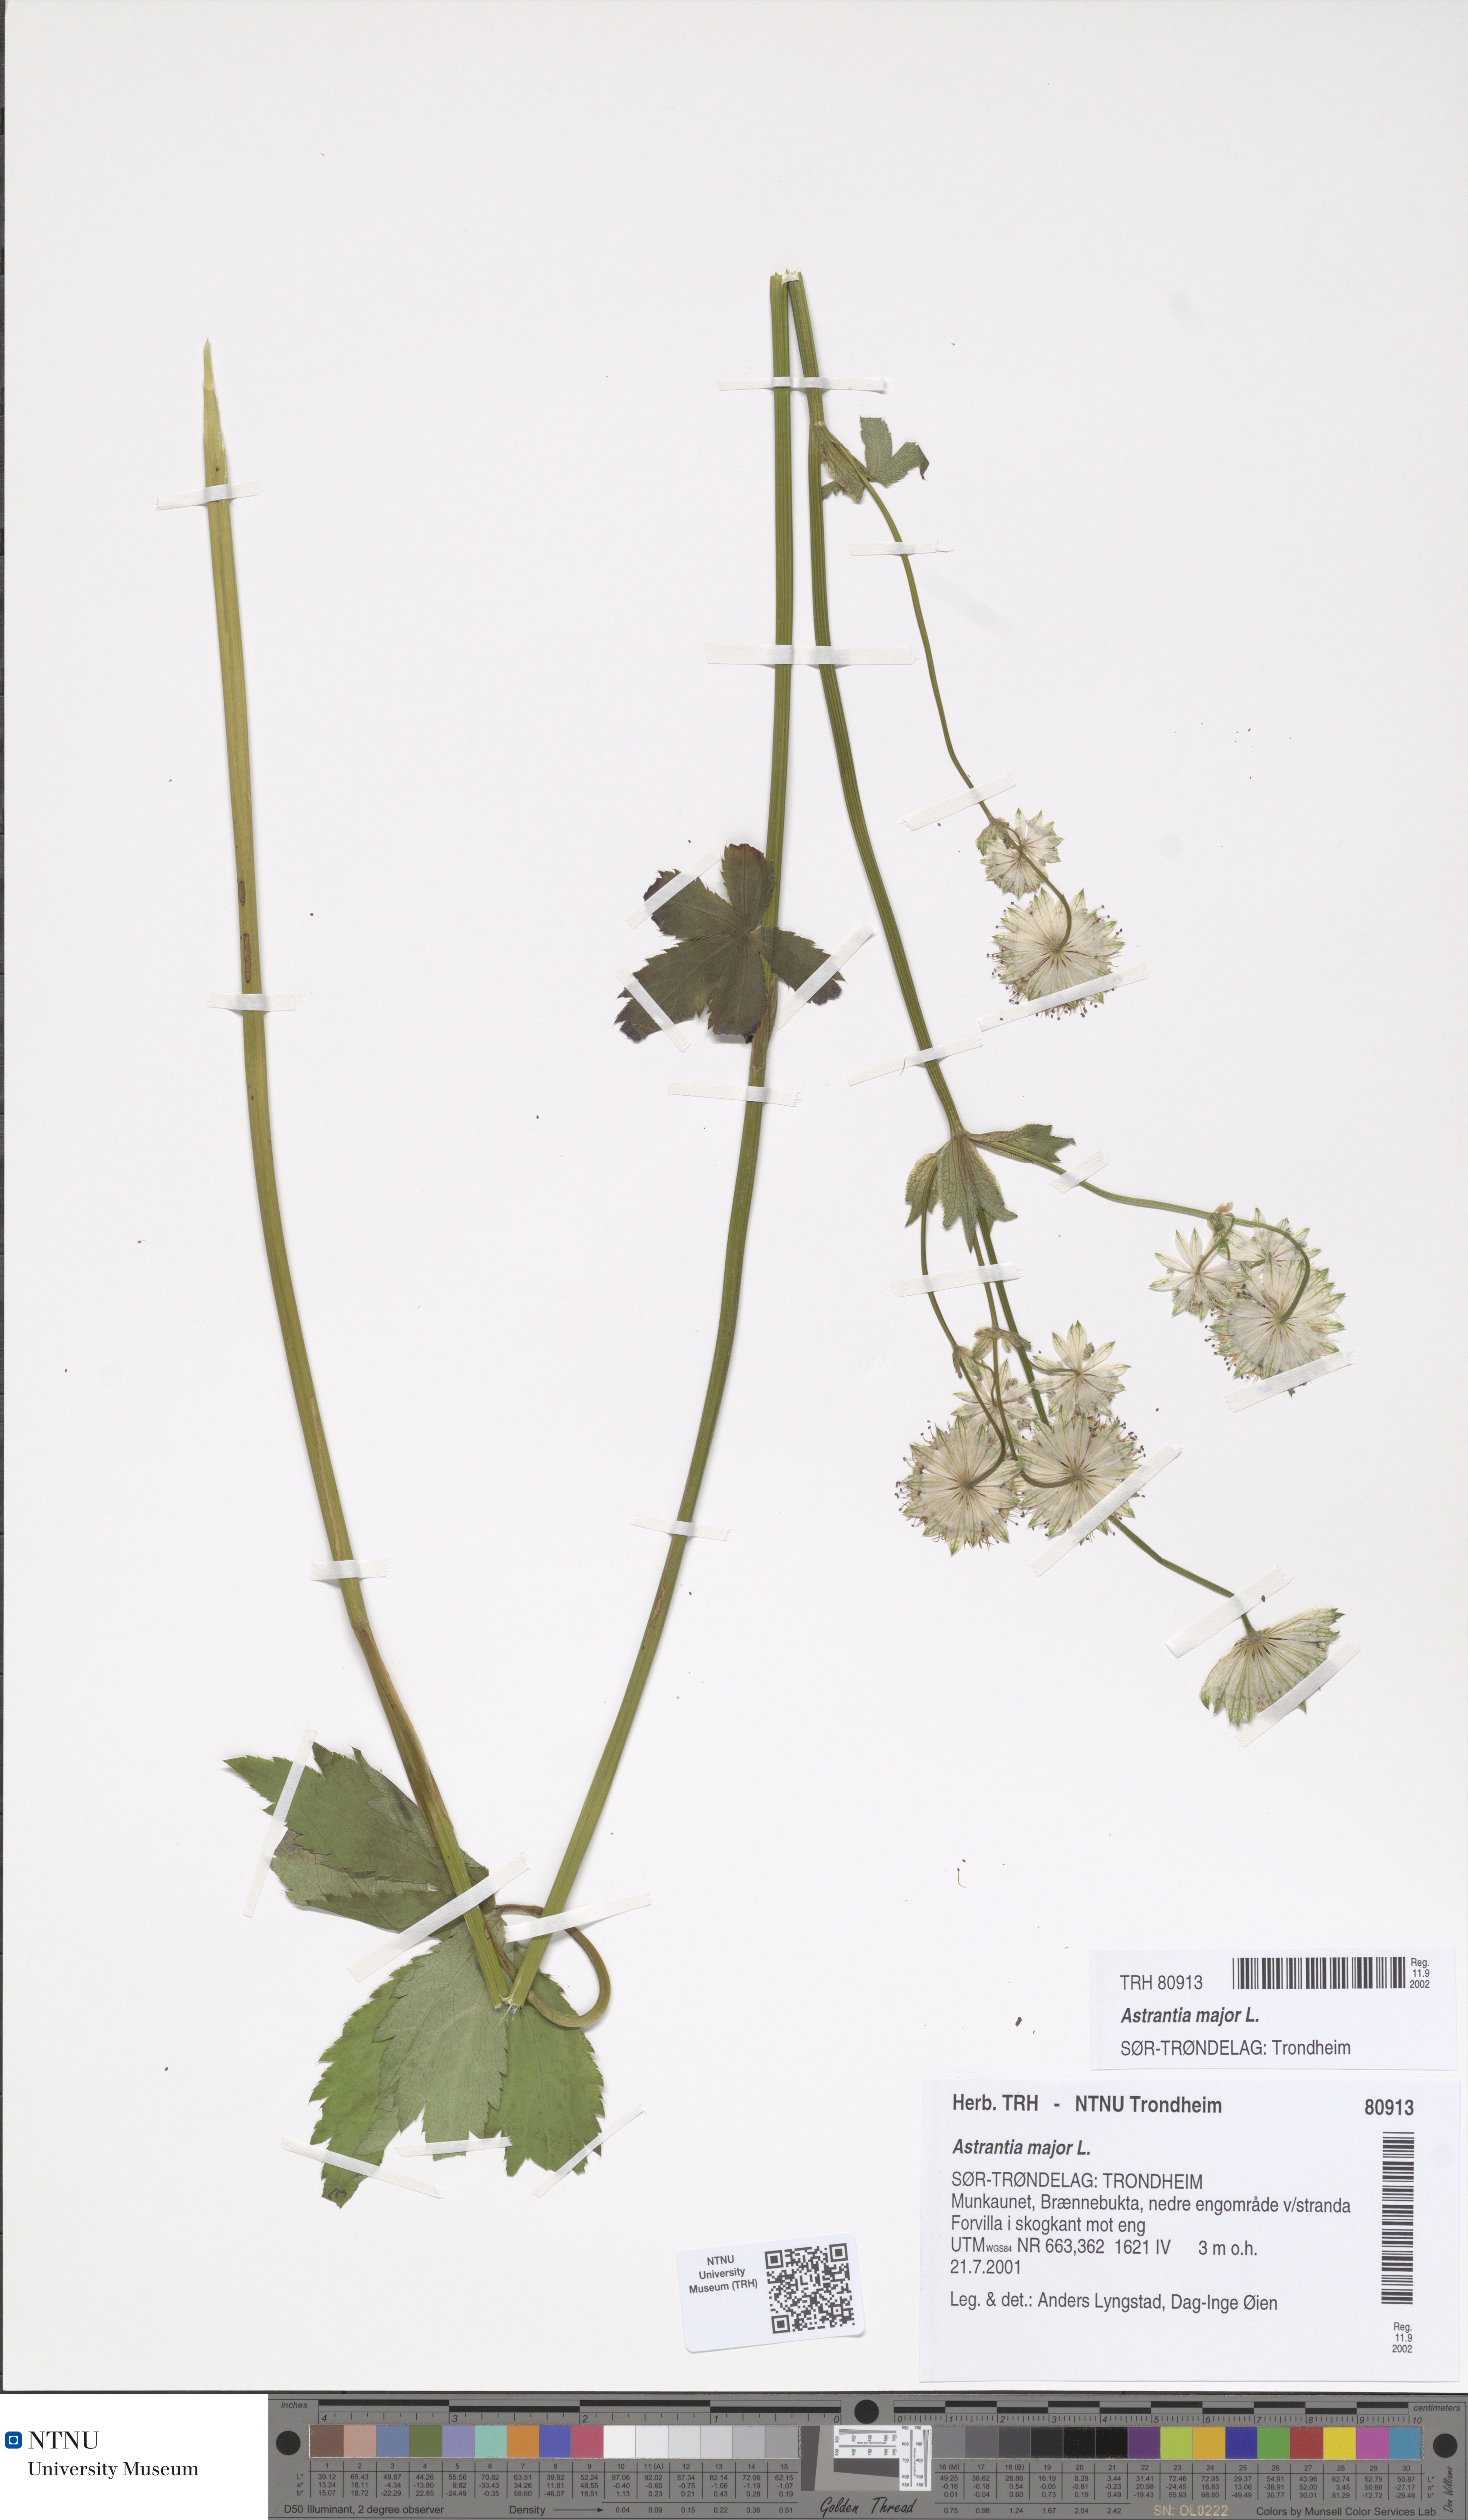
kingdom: Plantae
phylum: Tracheophyta
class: Magnoliopsida
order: Apiales
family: Apiaceae
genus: Astrantia
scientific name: Astrantia major
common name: Greater masterwort
